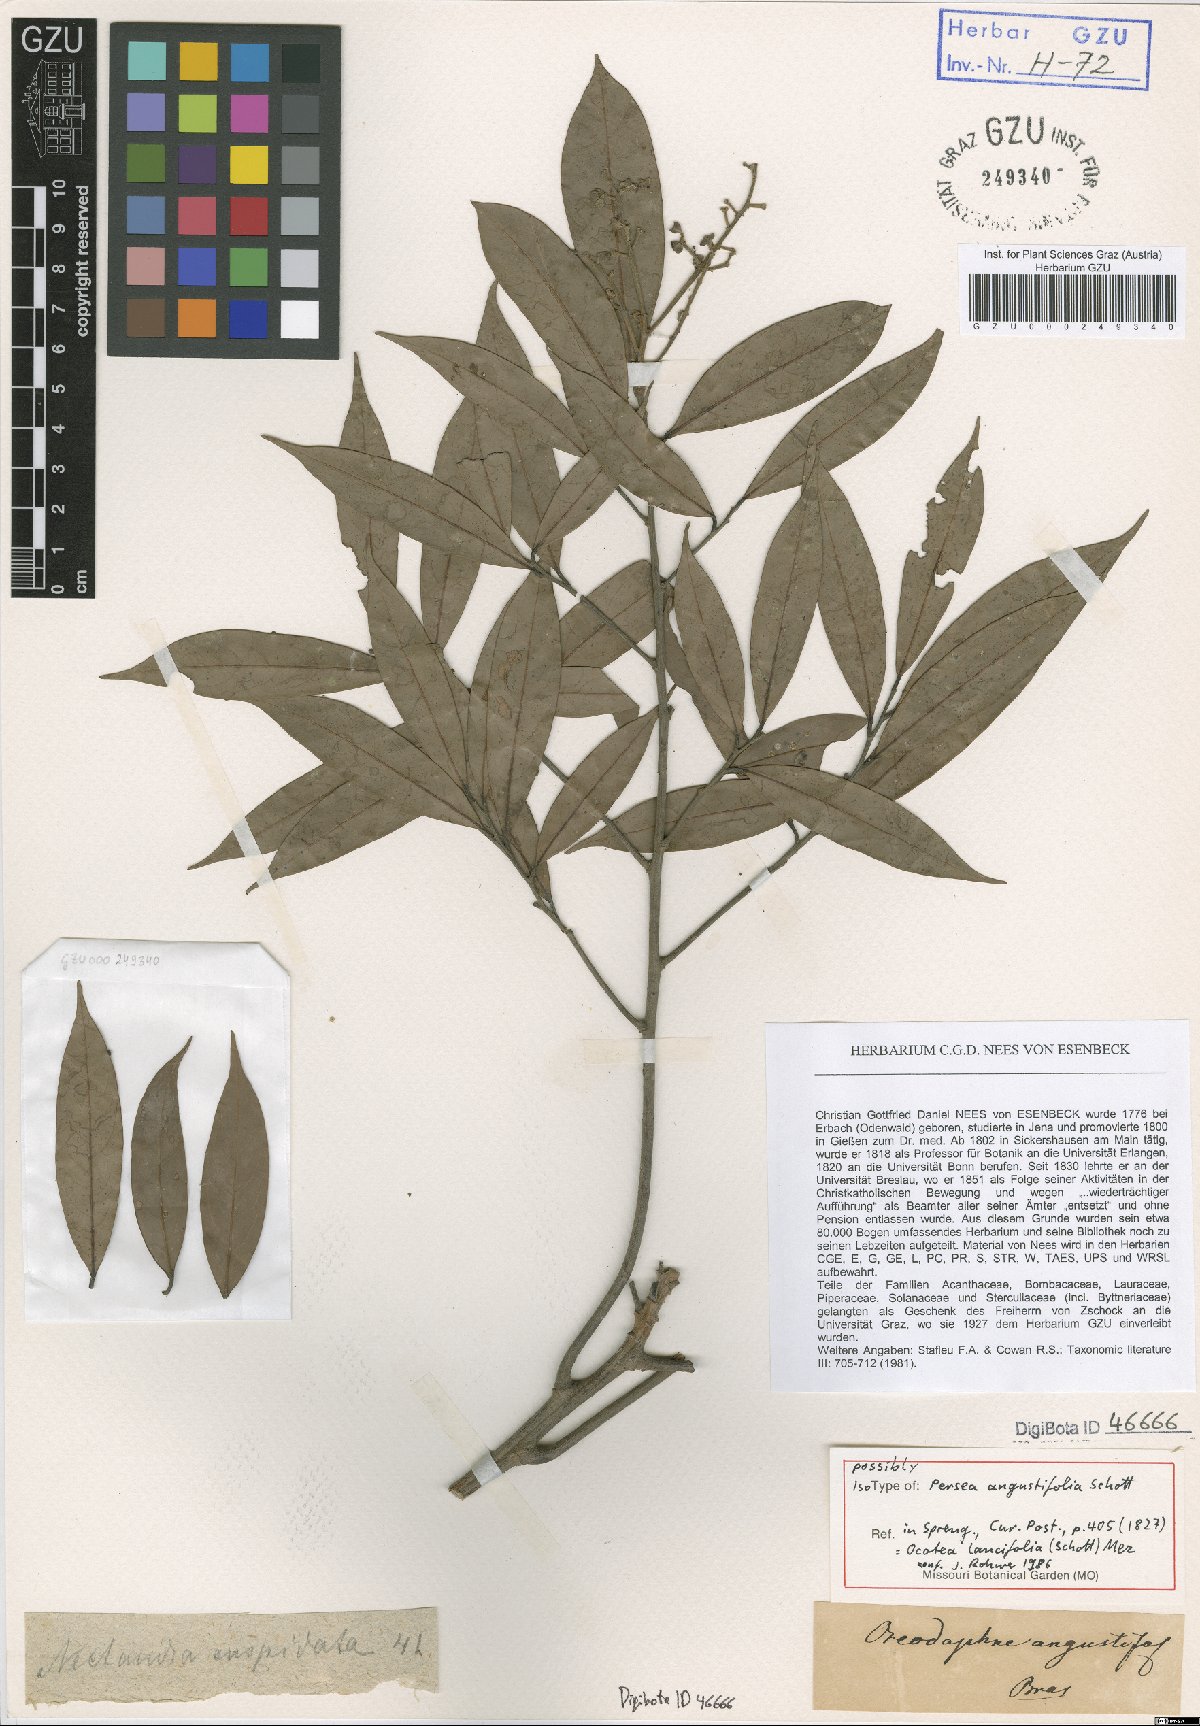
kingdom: Plantae
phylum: Tracheophyta
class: Magnoliopsida
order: Laurales
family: Lauraceae
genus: Ocotea
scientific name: Ocotea lancifolia
